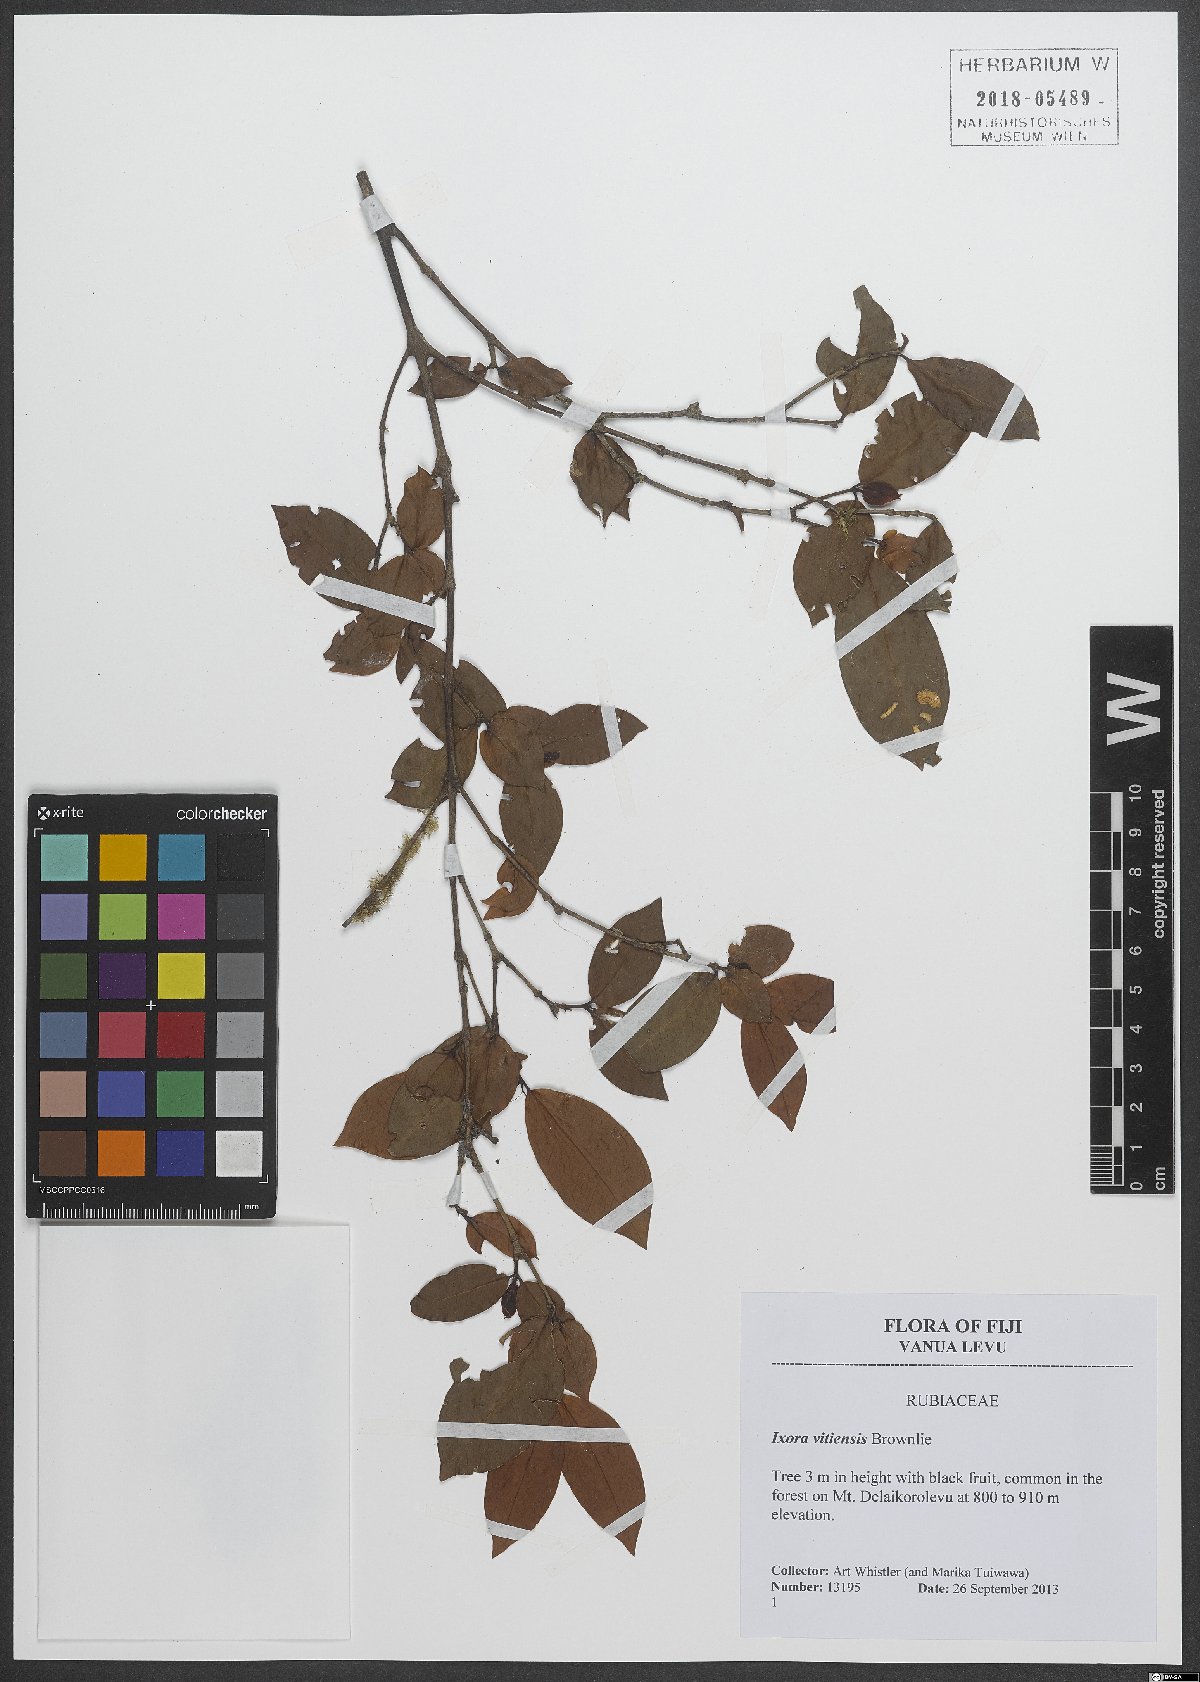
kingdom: Plantae
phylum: Tracheophyta
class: Magnoliopsida
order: Gentianales
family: Rubiaceae
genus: Ixora
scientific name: Ixora vitiensis
